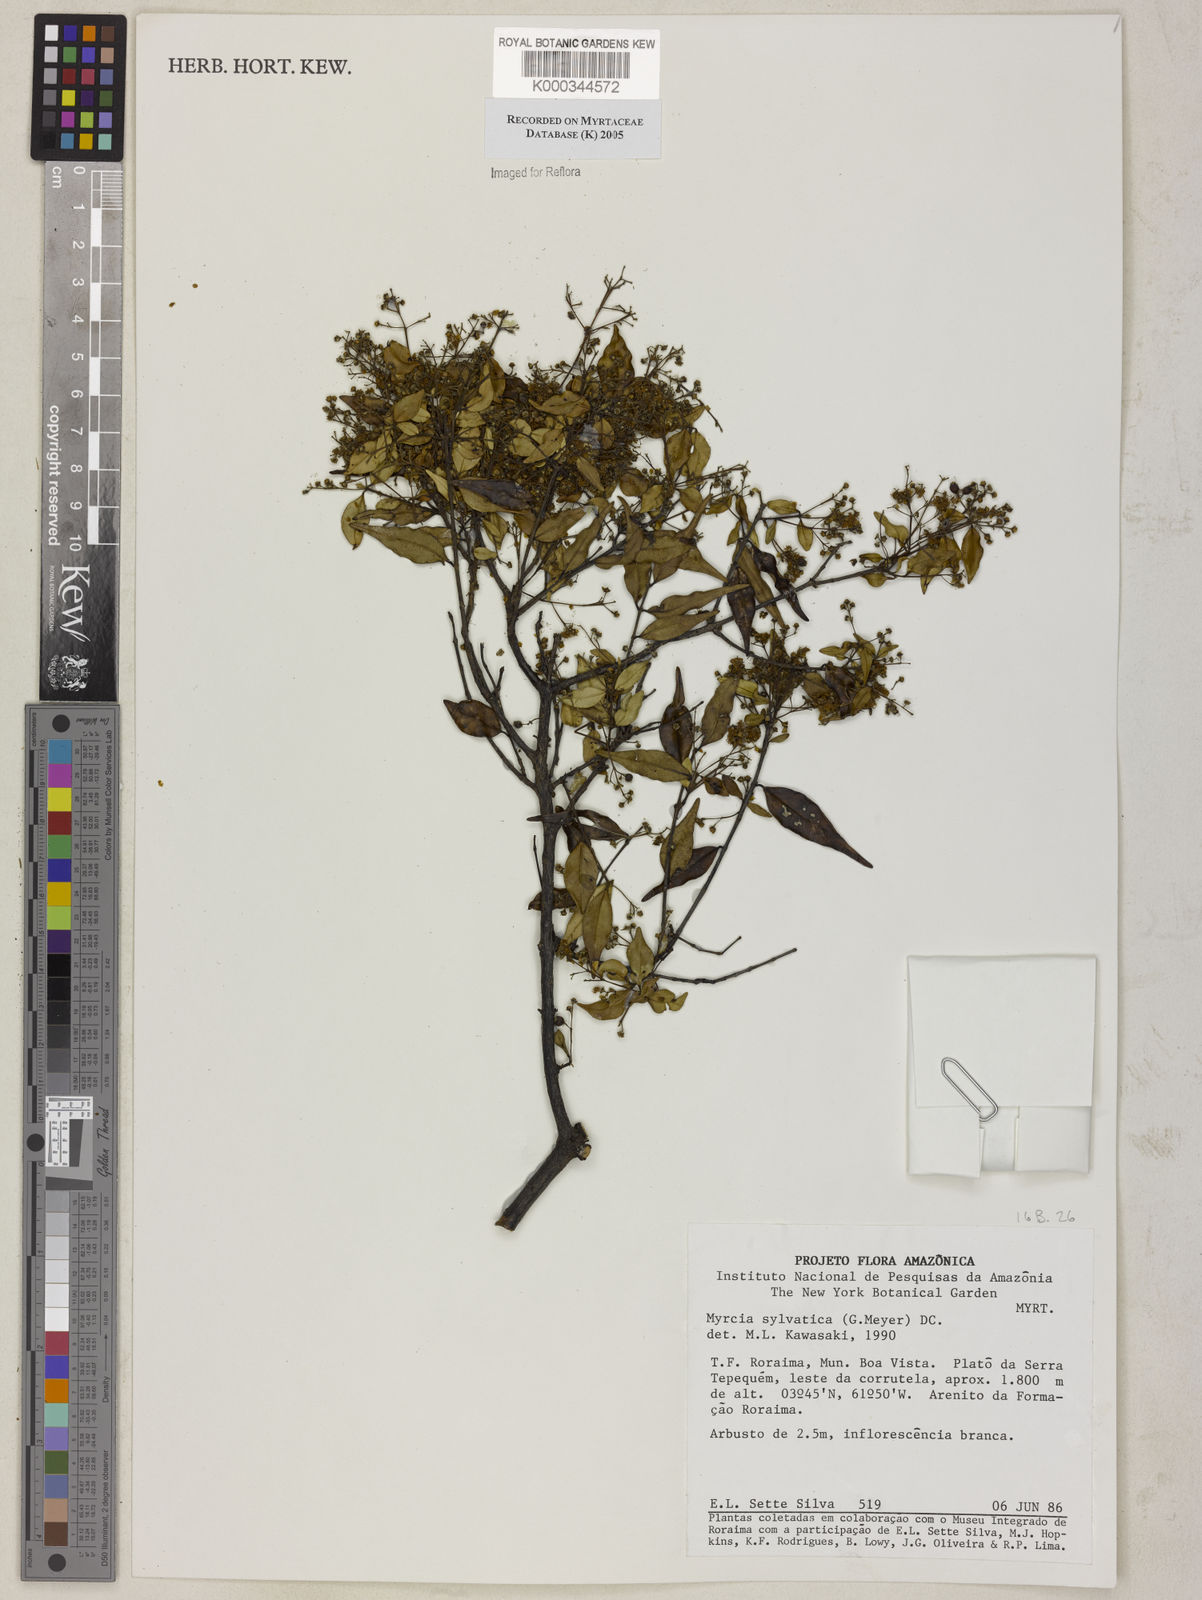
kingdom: Plantae
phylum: Tracheophyta
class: Magnoliopsida
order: Myrtales
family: Myrtaceae
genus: Myrcia
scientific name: Myrcia sylvatica
